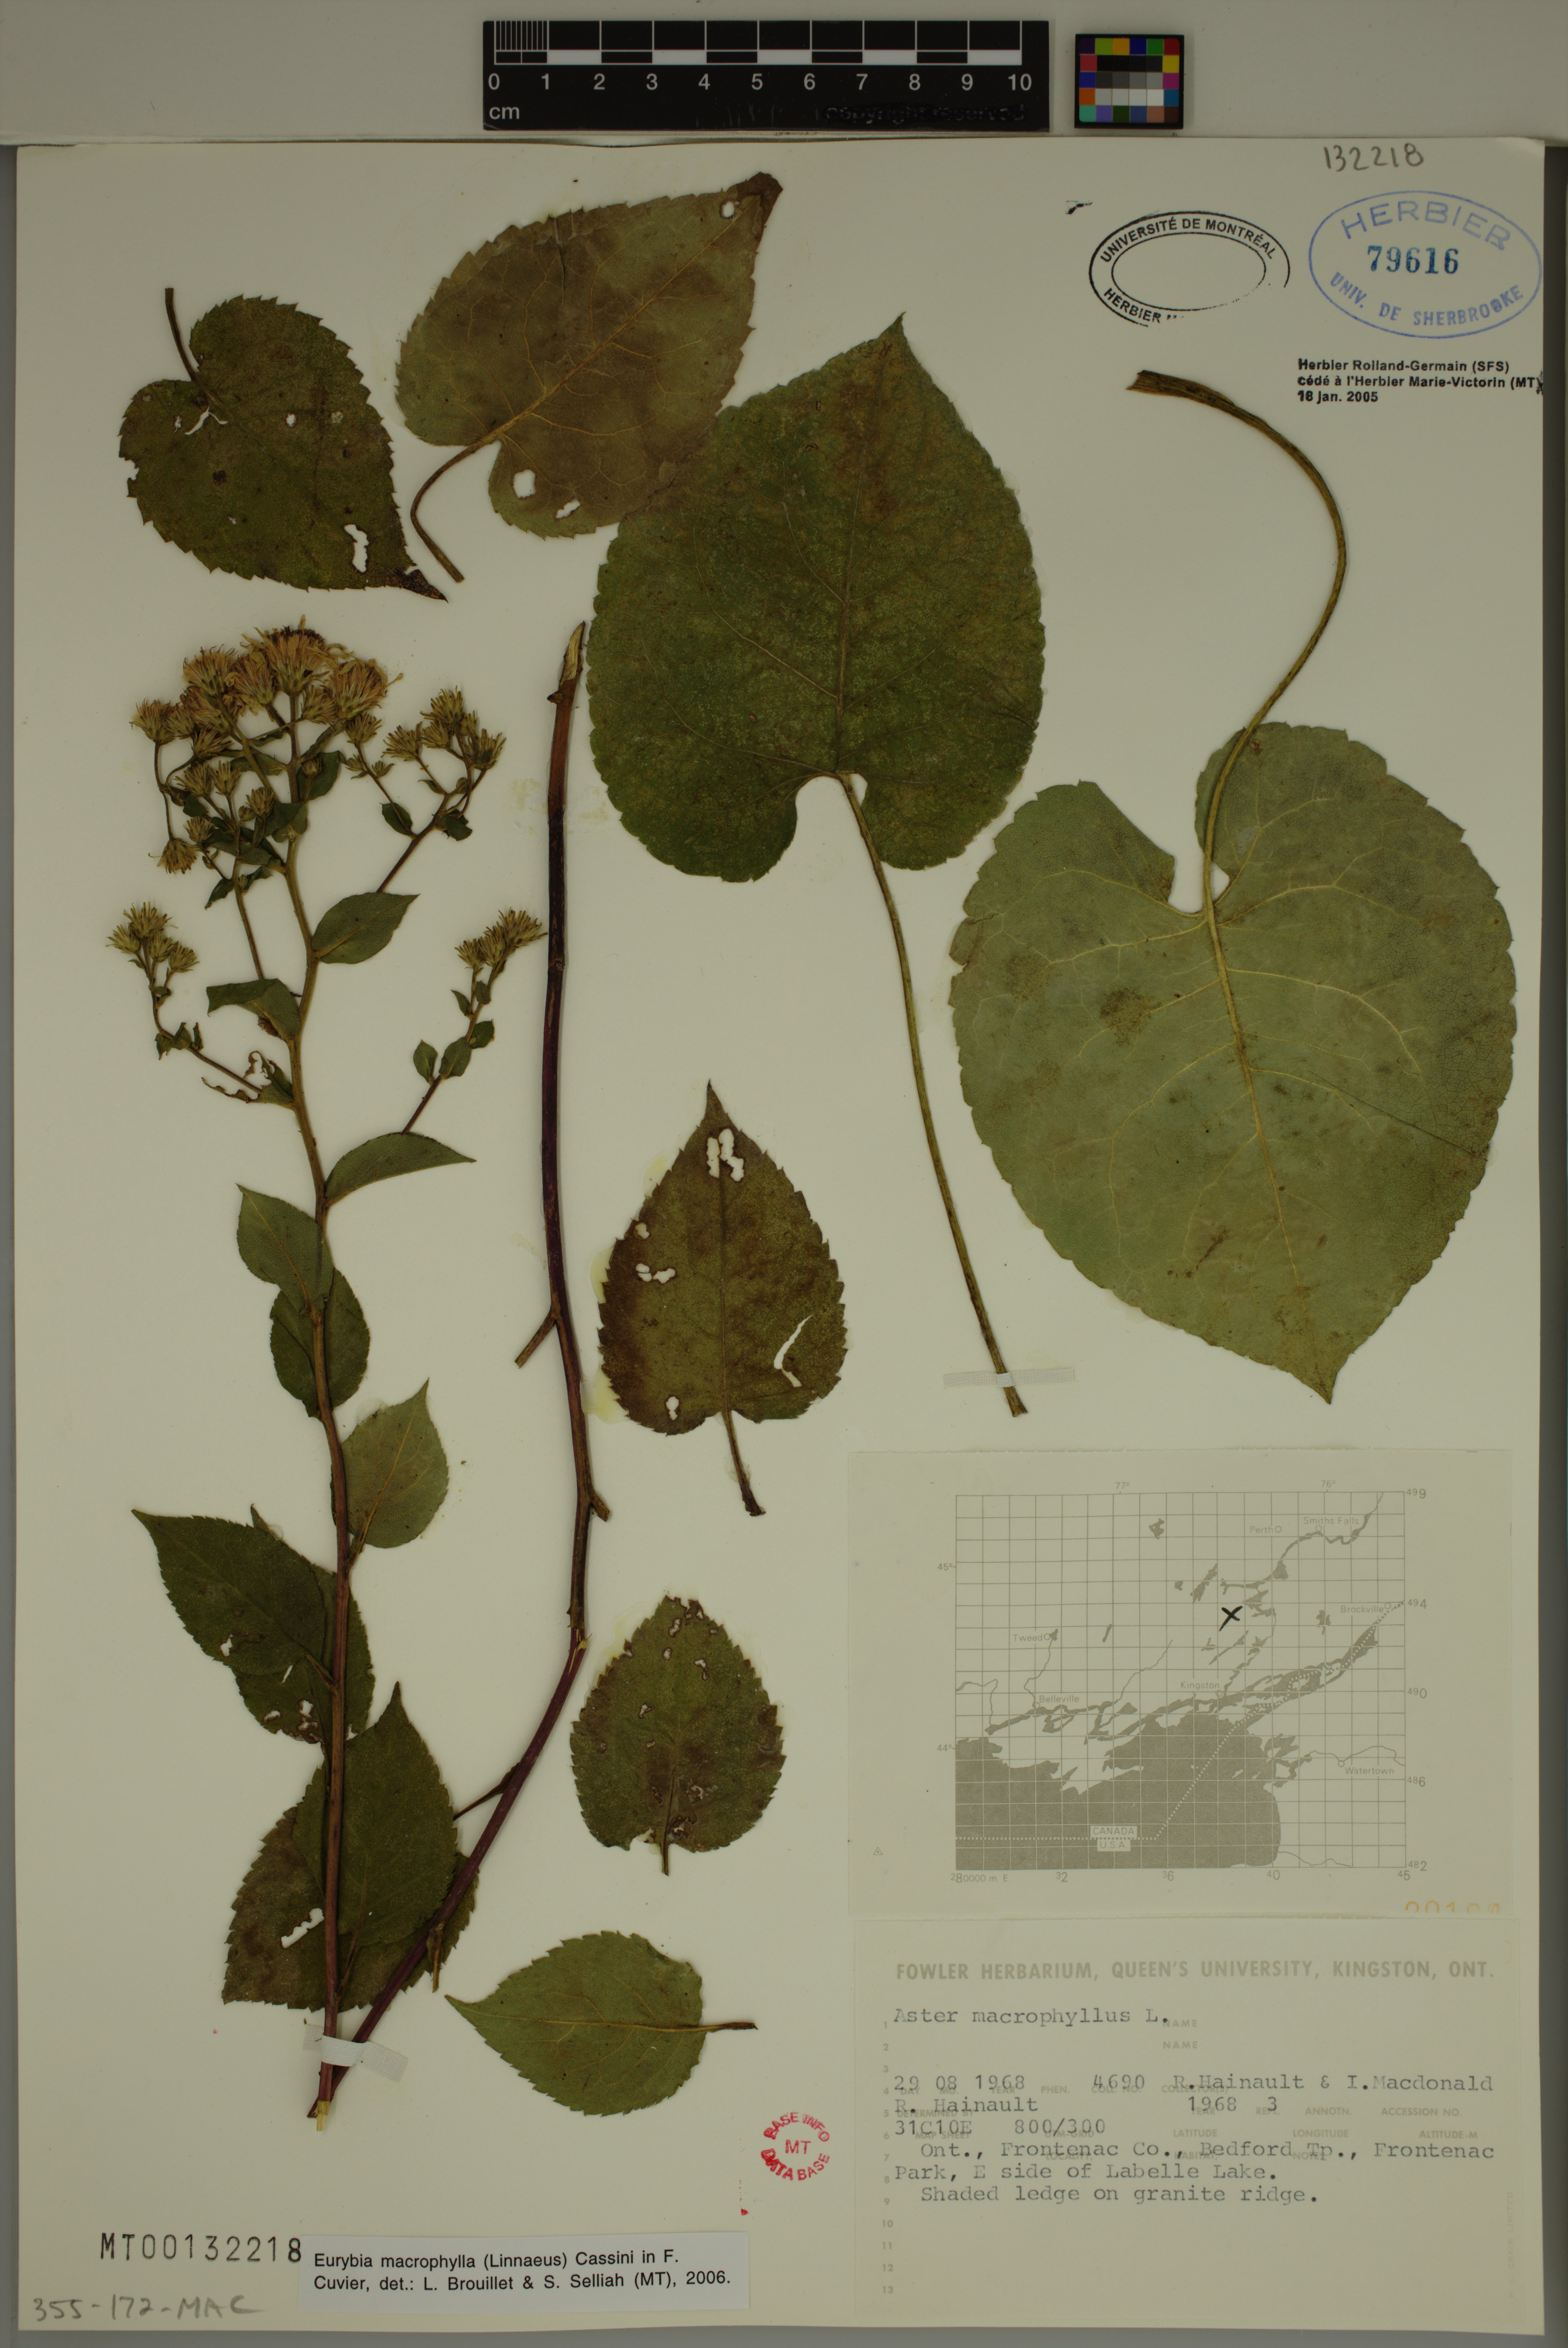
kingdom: Plantae
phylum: Tracheophyta
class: Magnoliopsida
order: Asterales
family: Asteraceae
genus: Eurybia
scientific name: Eurybia macrophylla
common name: Big-leaved aster
